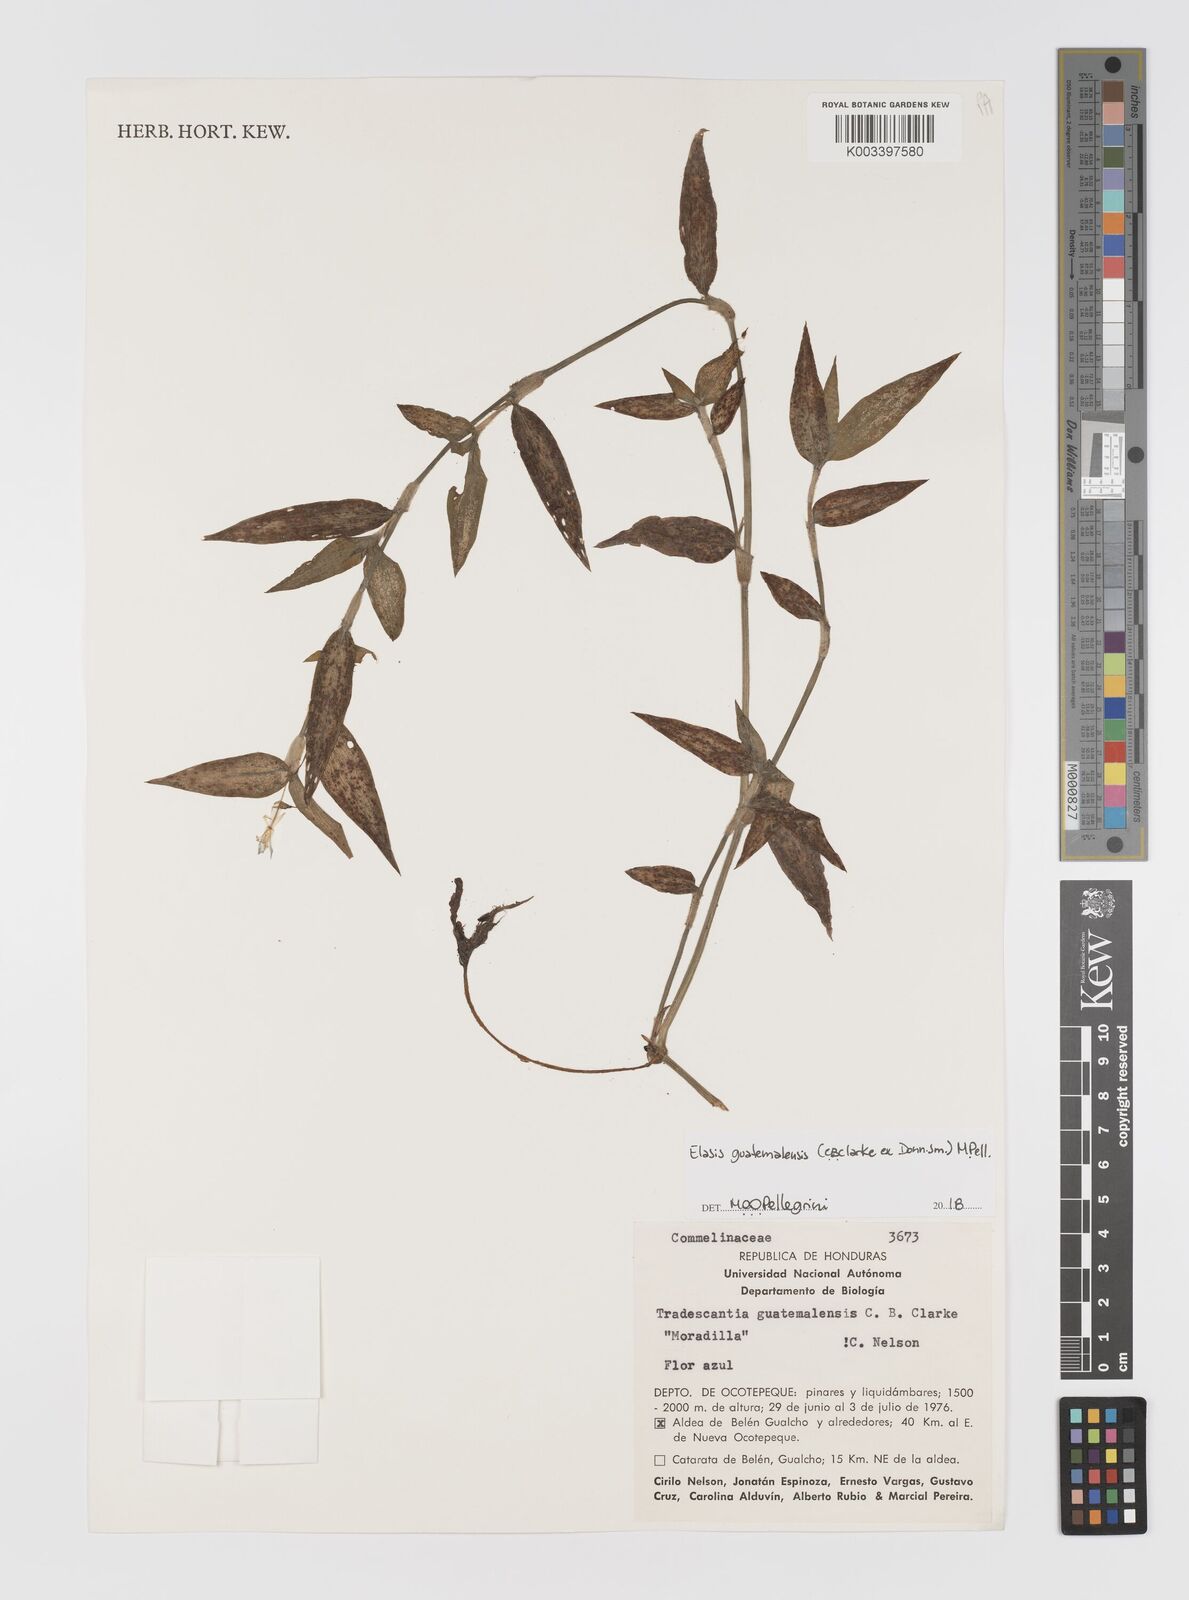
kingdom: Plantae
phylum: Tracheophyta
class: Liliopsida
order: Commelinales
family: Commelinaceae
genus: Elasis
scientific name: Elasis guatemalensis
